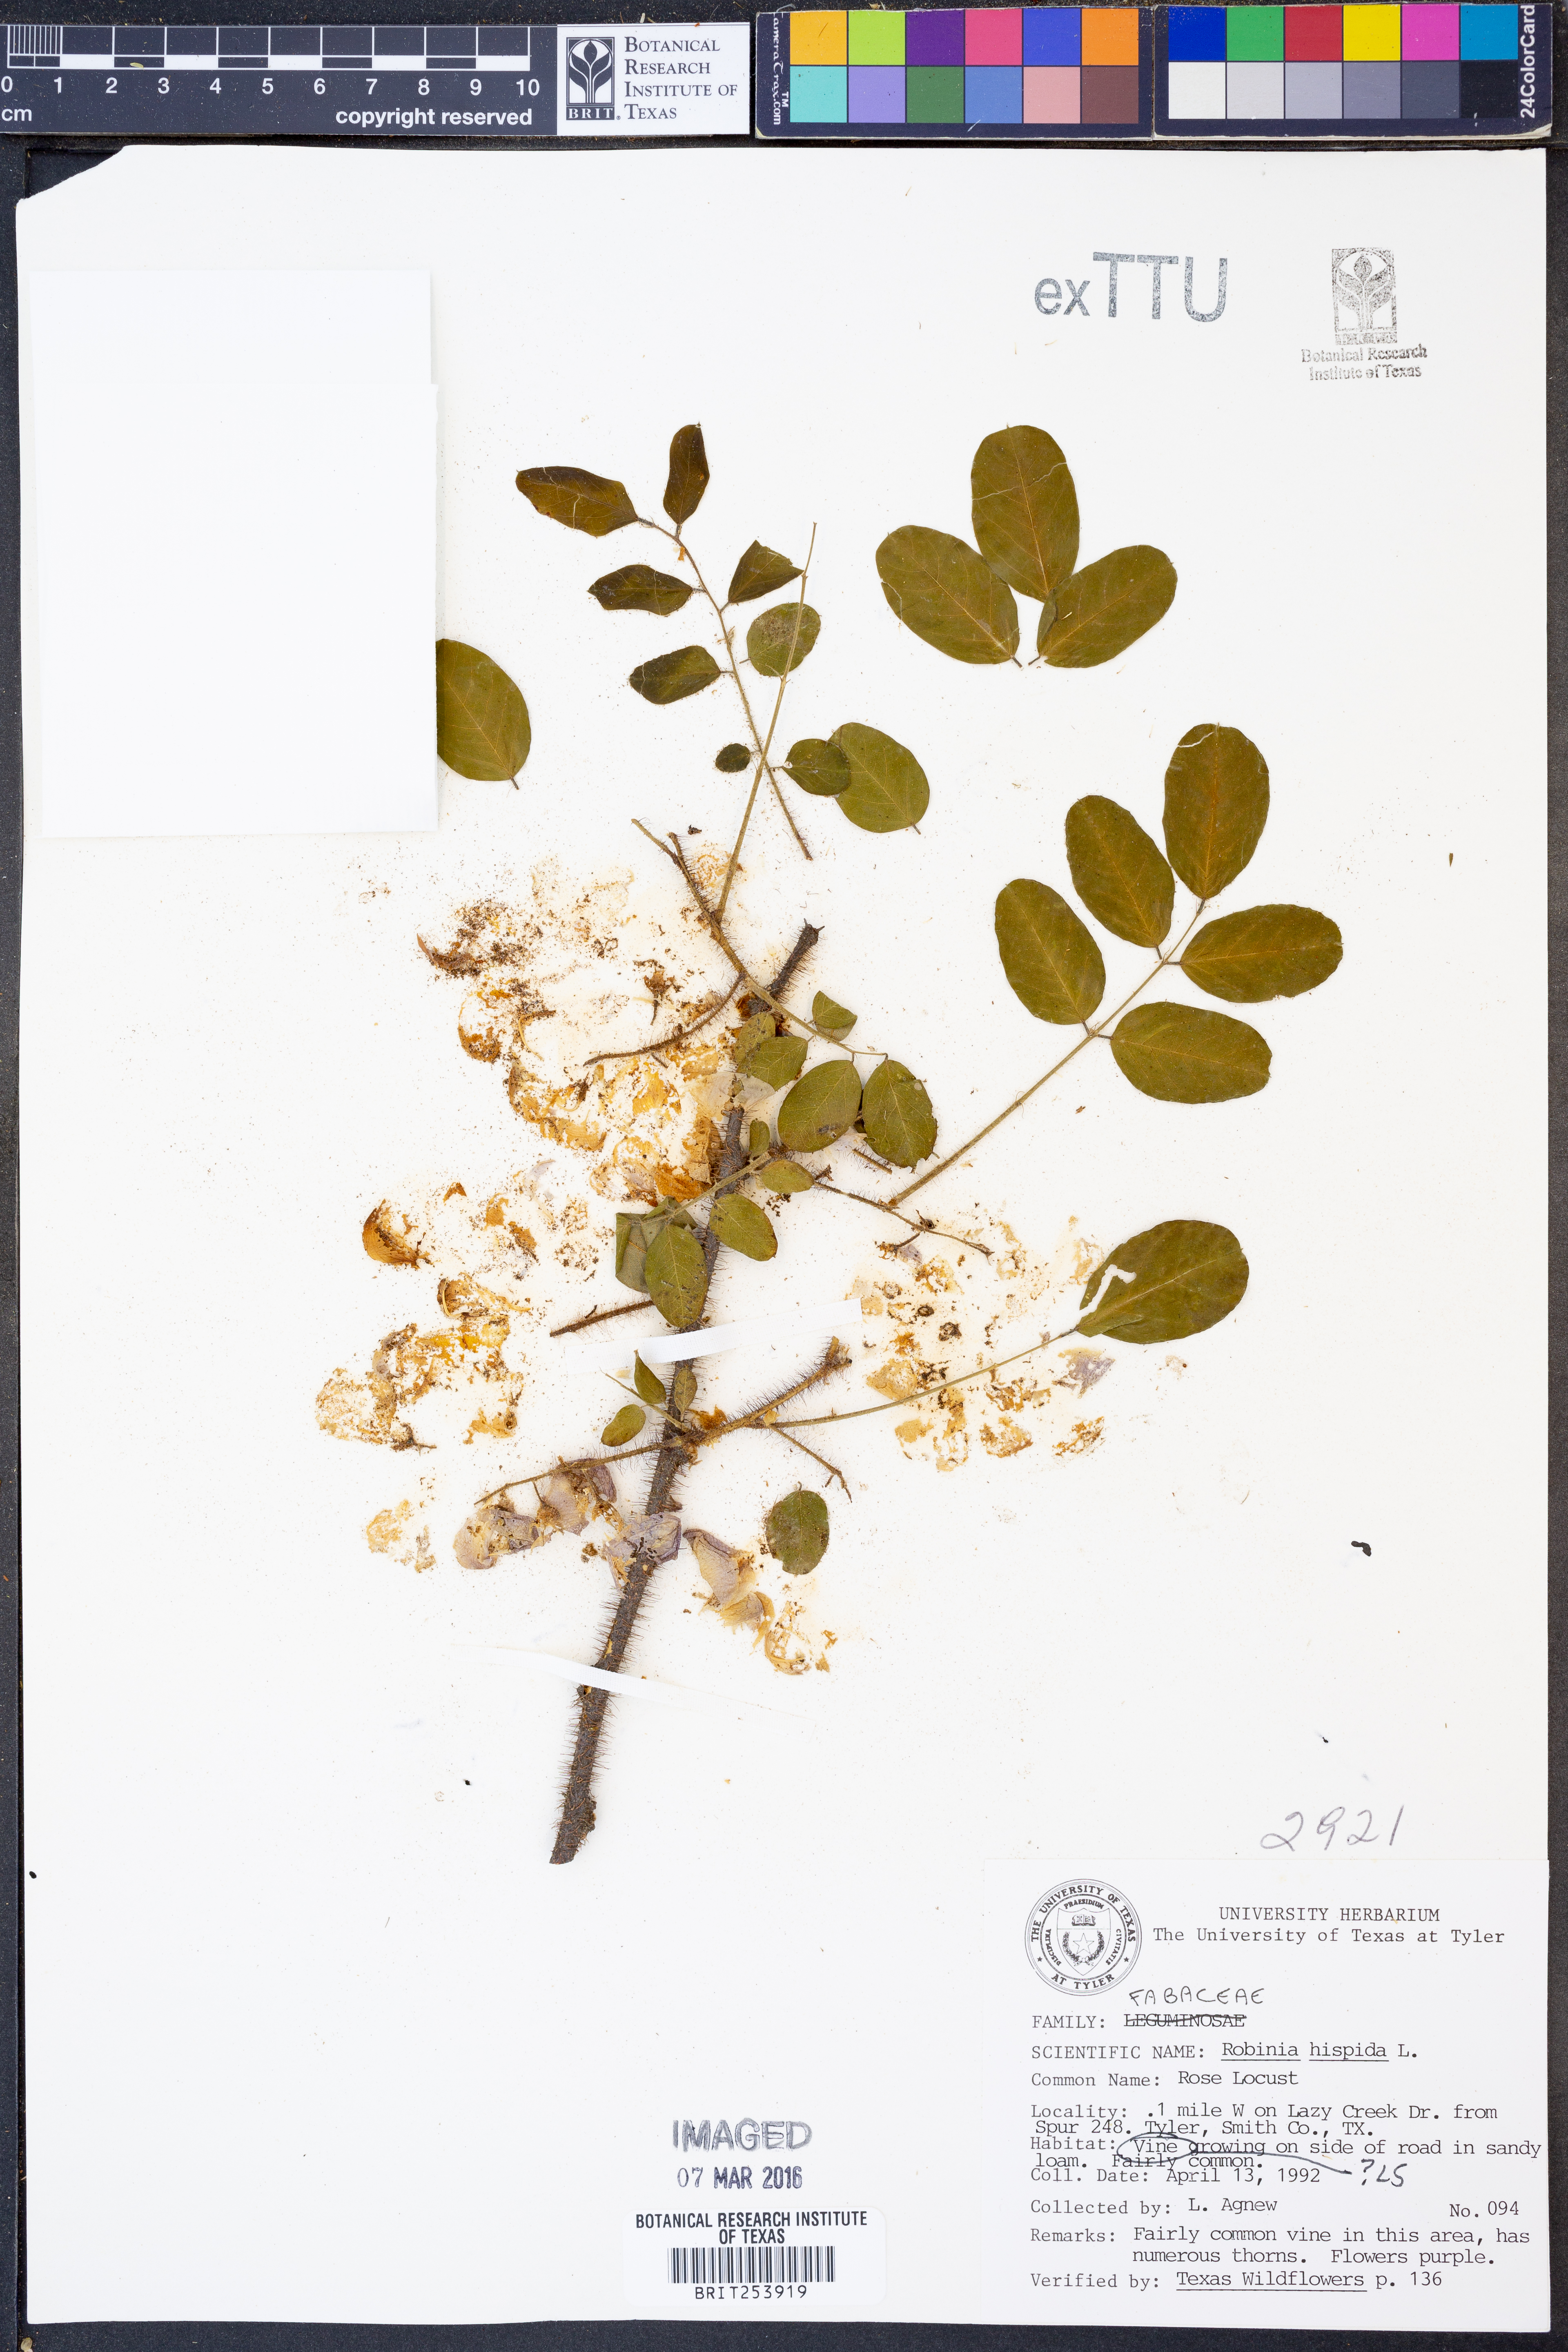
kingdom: Plantae
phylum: Tracheophyta
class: Magnoliopsida
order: Fabales
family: Fabaceae
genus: Robinia
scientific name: Robinia hispida
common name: Bristly locust
